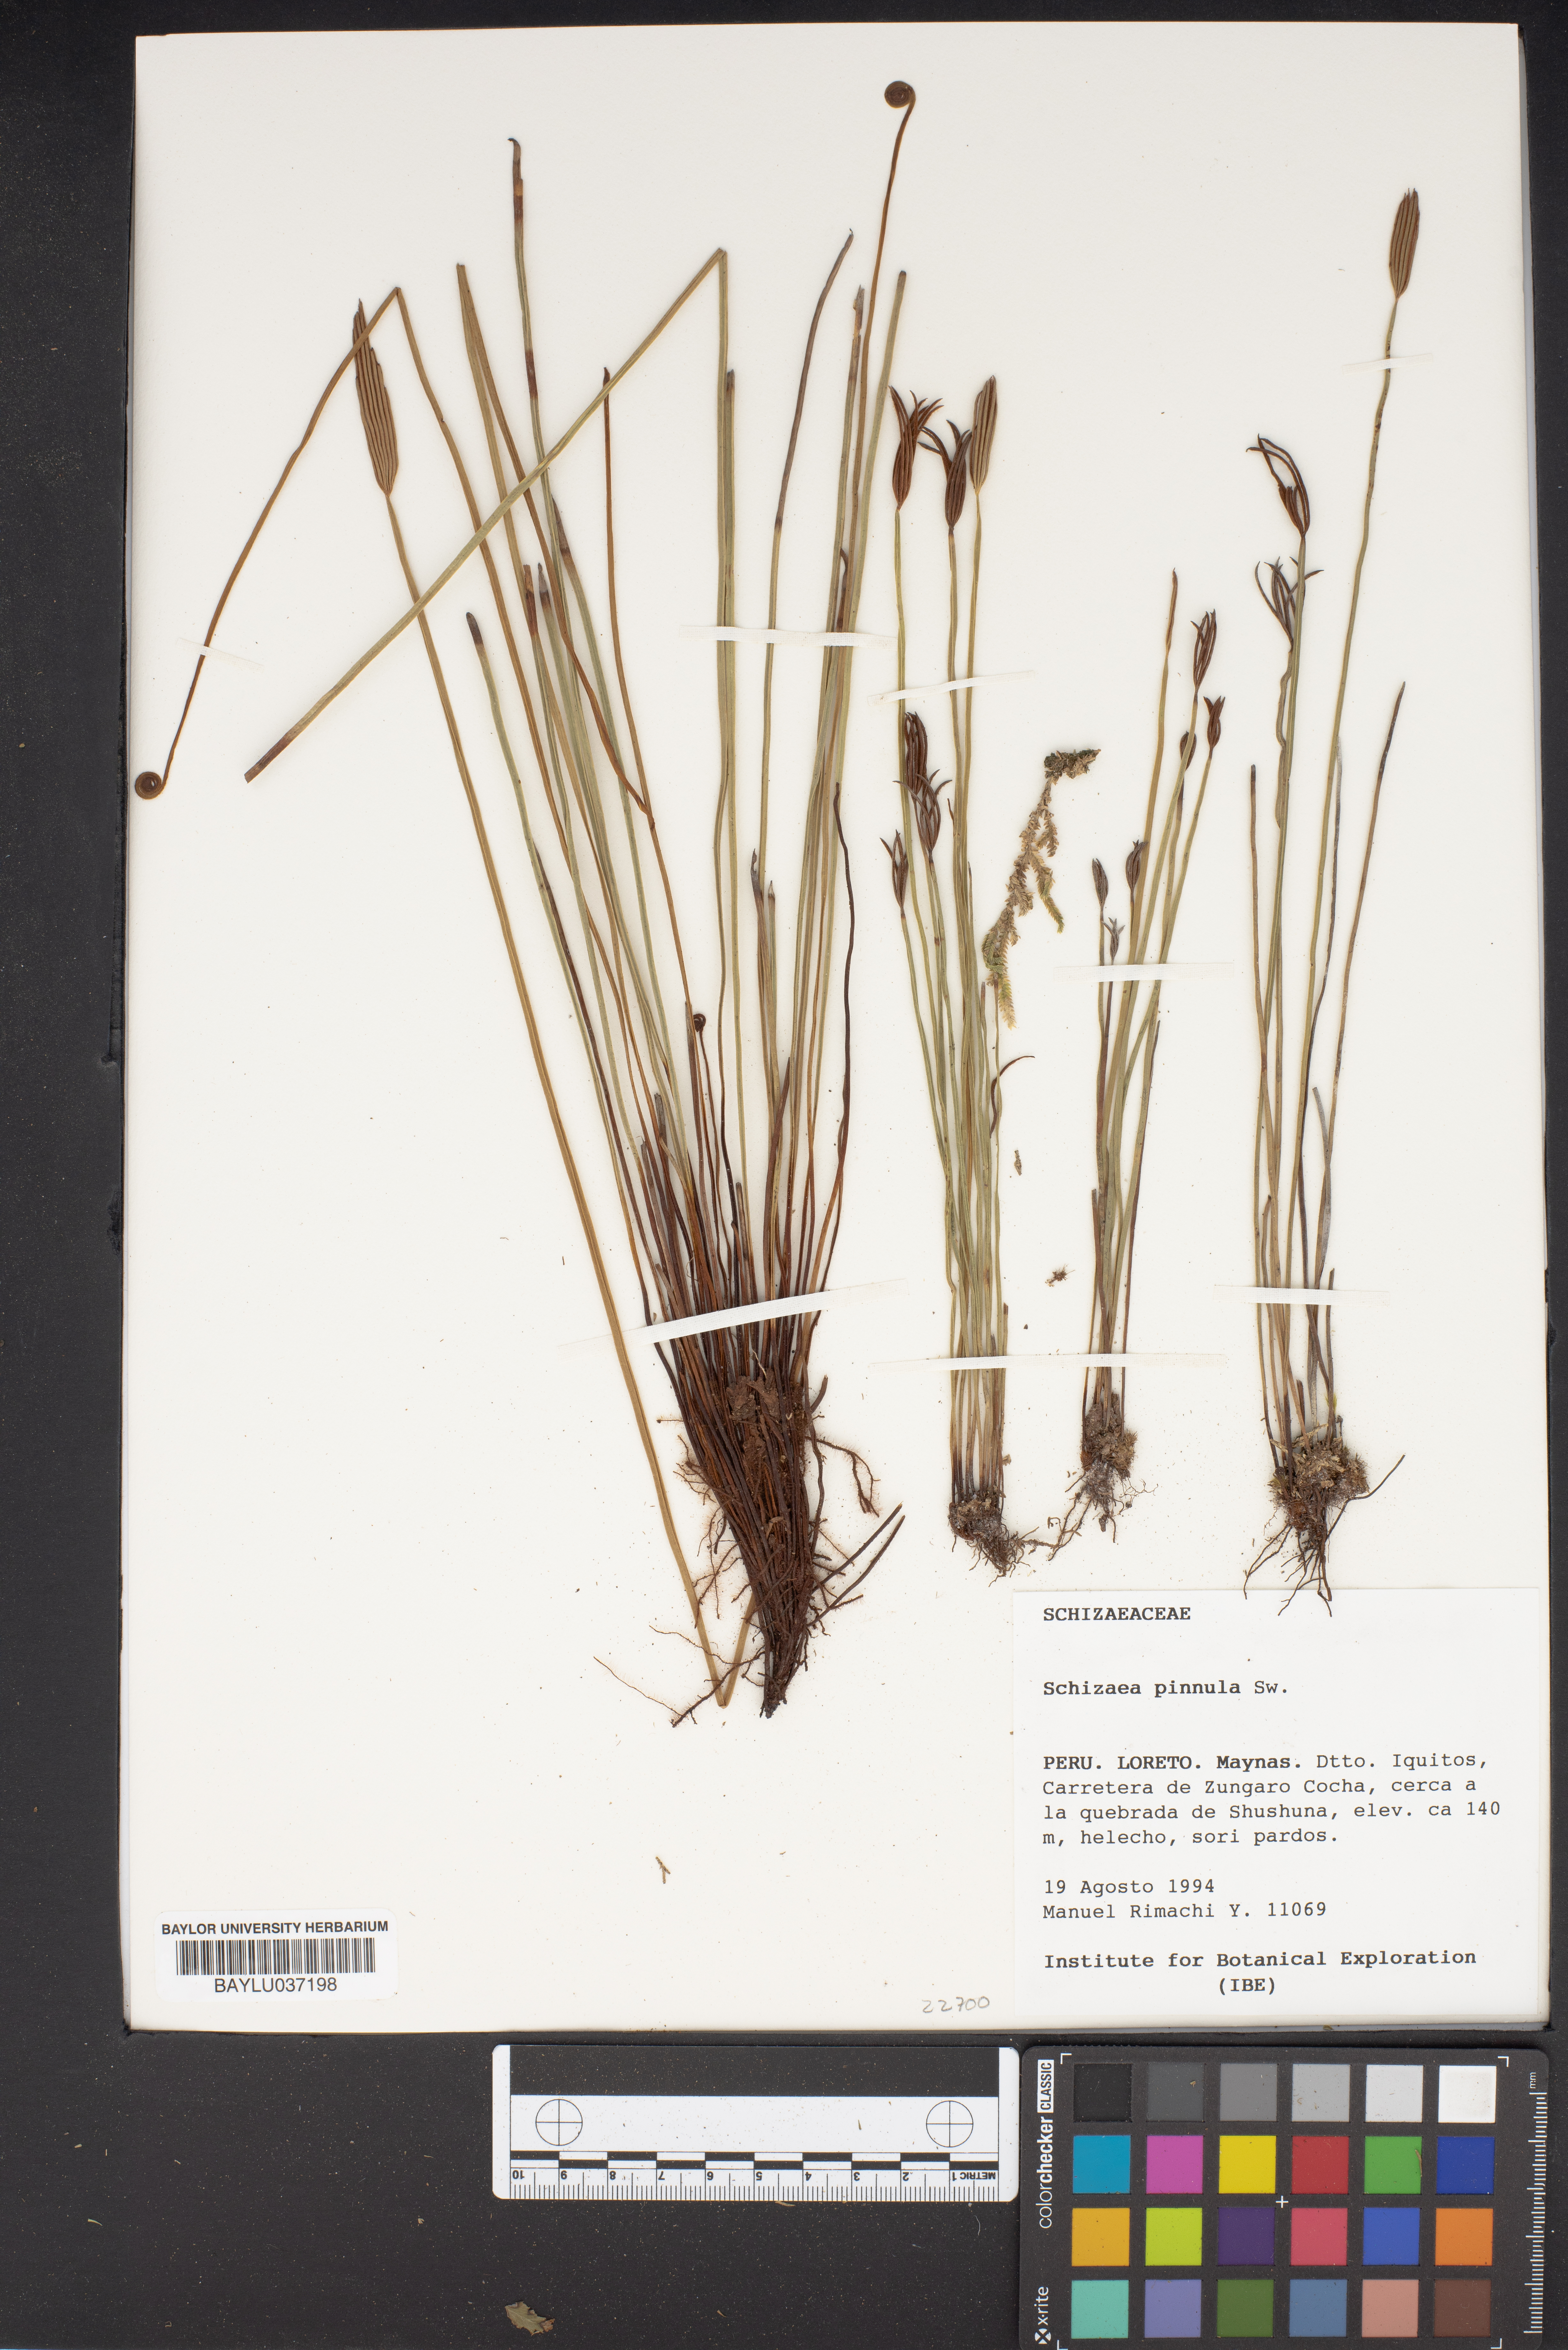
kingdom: Plantae
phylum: Tracheophyta
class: Polypodiopsida
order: Schizaeales
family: Schizaeaceae
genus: Actinostachys
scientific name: Actinostachys pennula
